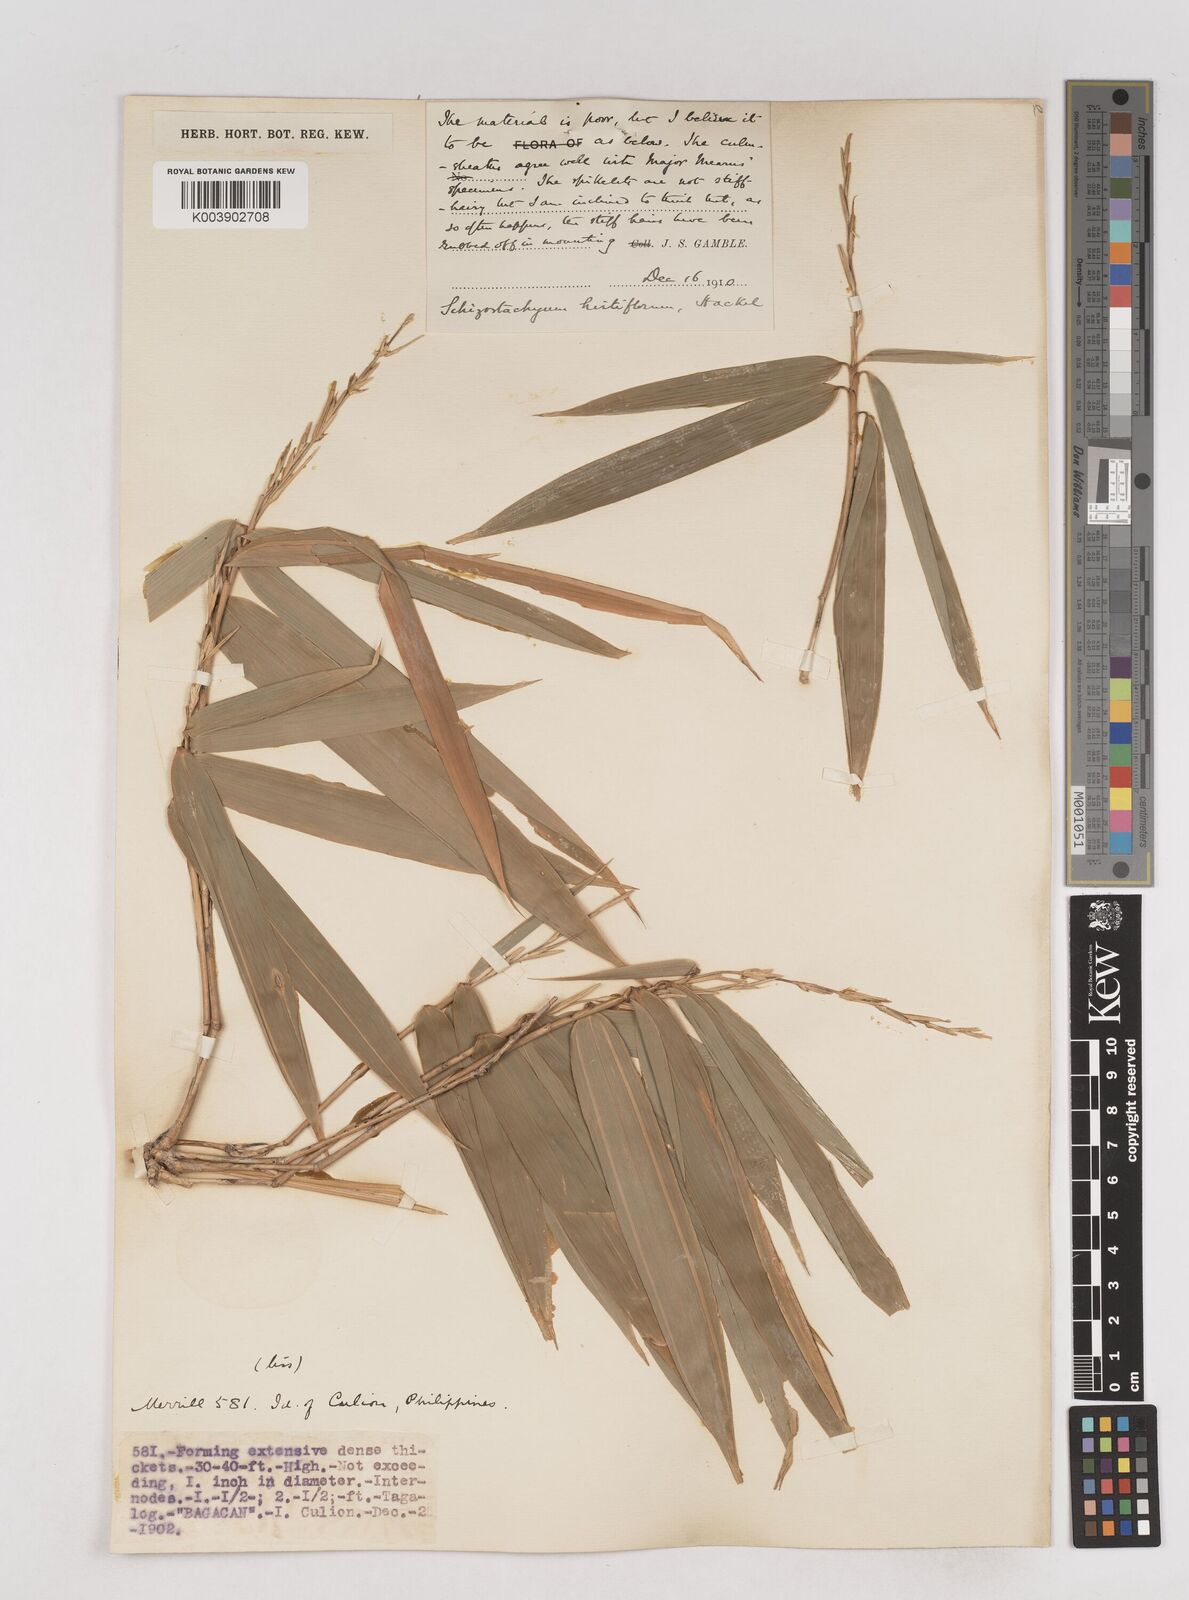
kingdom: Plantae
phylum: Tracheophyta
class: Liliopsida
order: Poales
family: Poaceae
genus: Schizostachyum
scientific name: Schizostachyum
